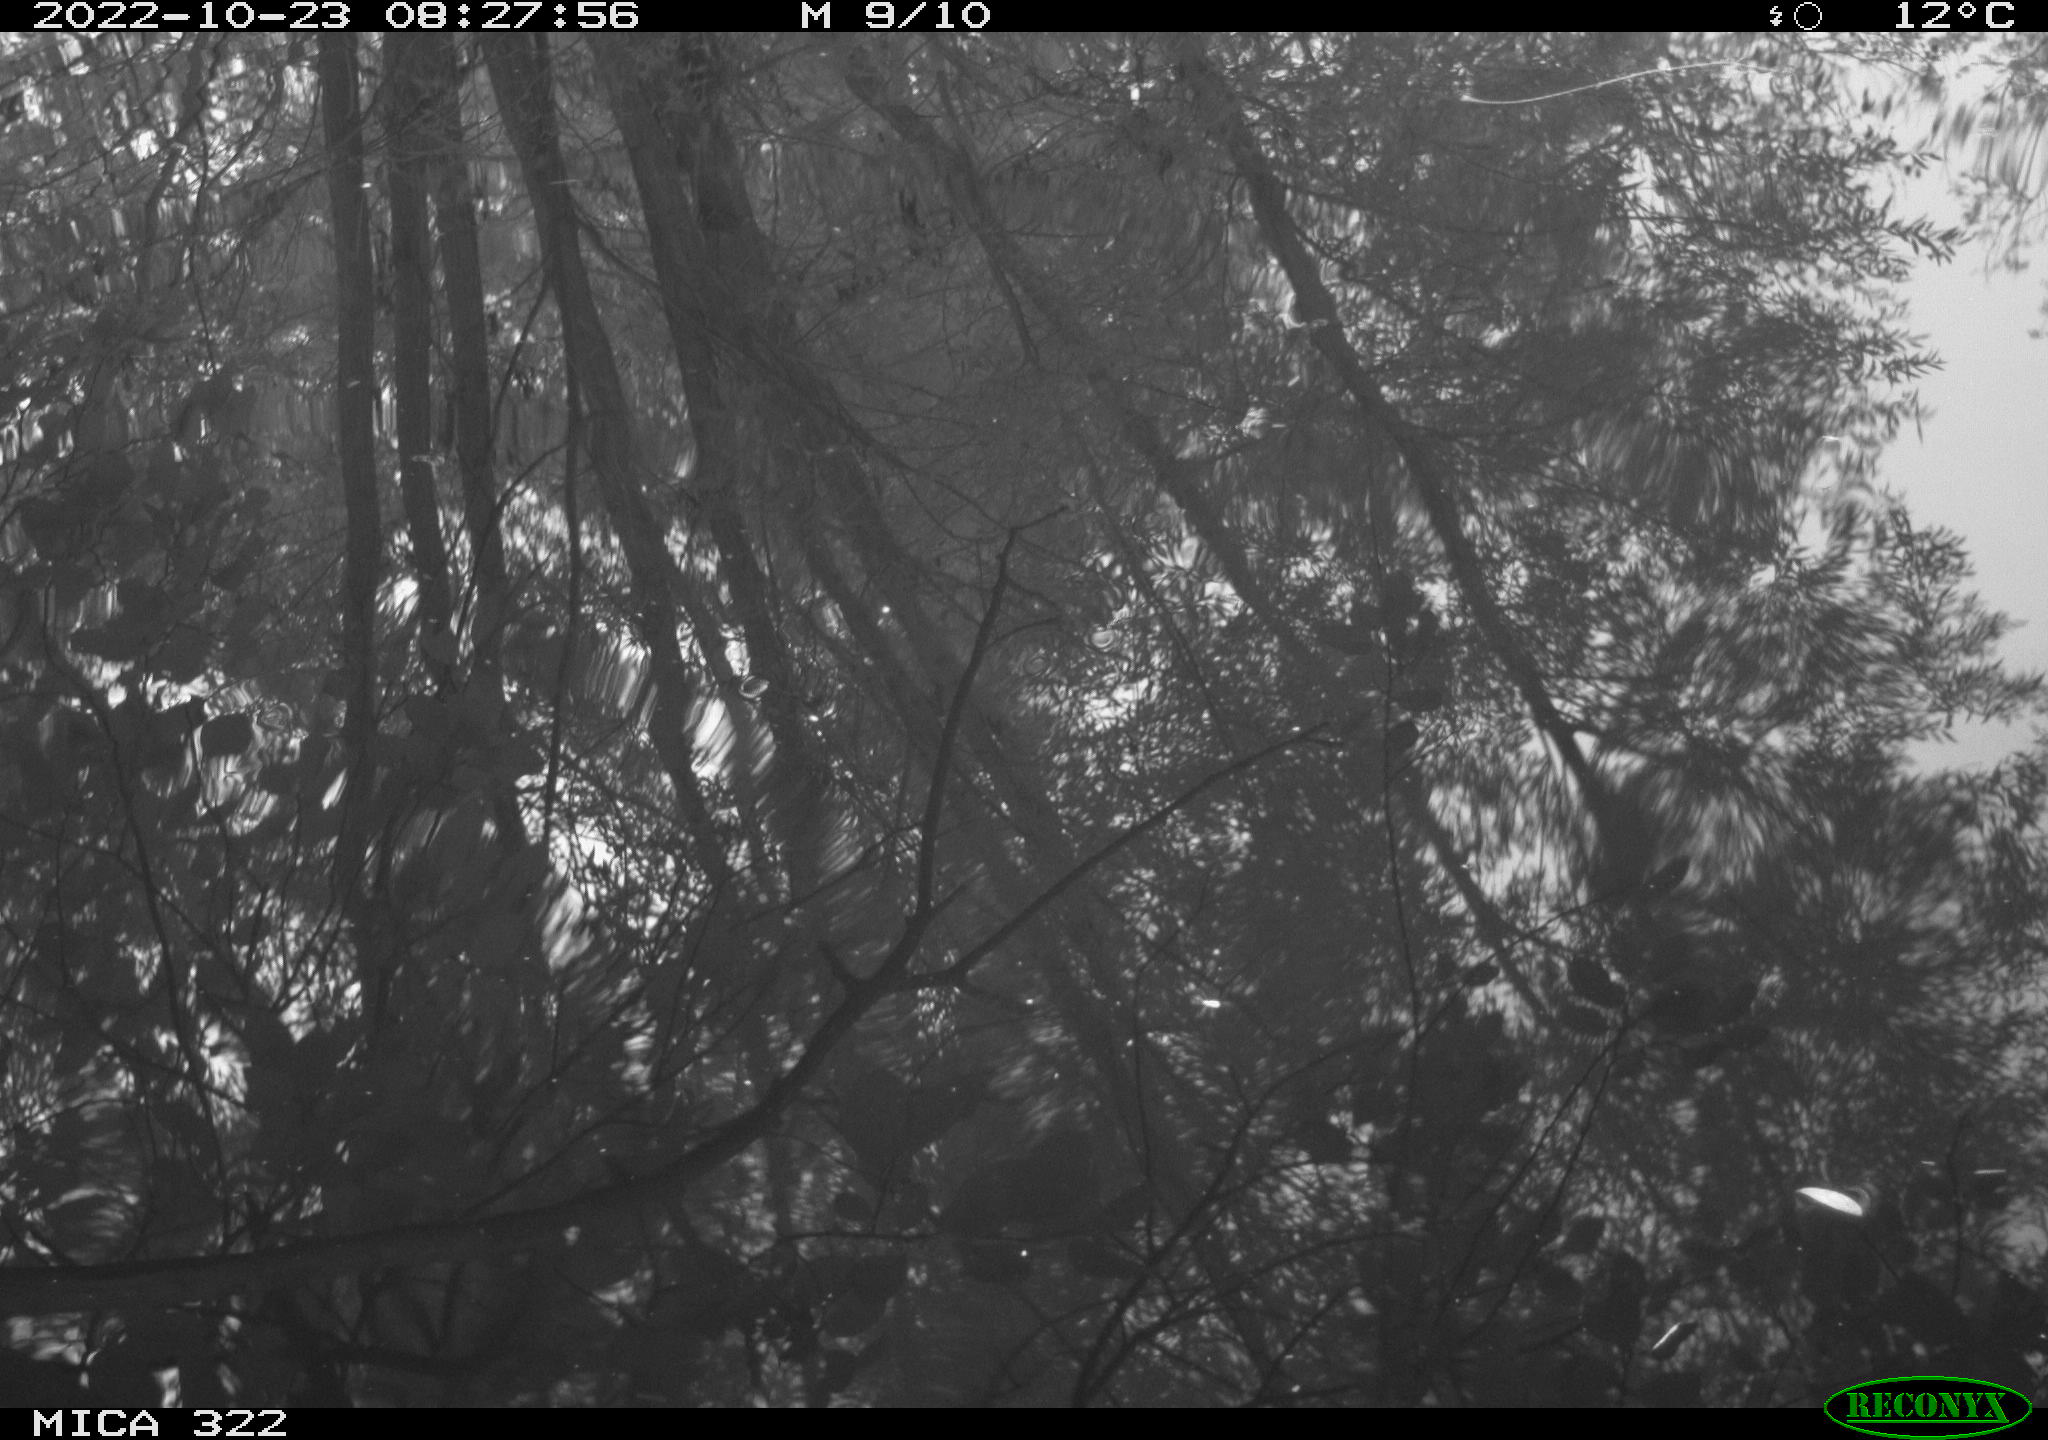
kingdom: Animalia
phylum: Chordata
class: Aves
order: Gruiformes
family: Rallidae
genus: Gallinula
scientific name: Gallinula chloropus
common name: Common moorhen
